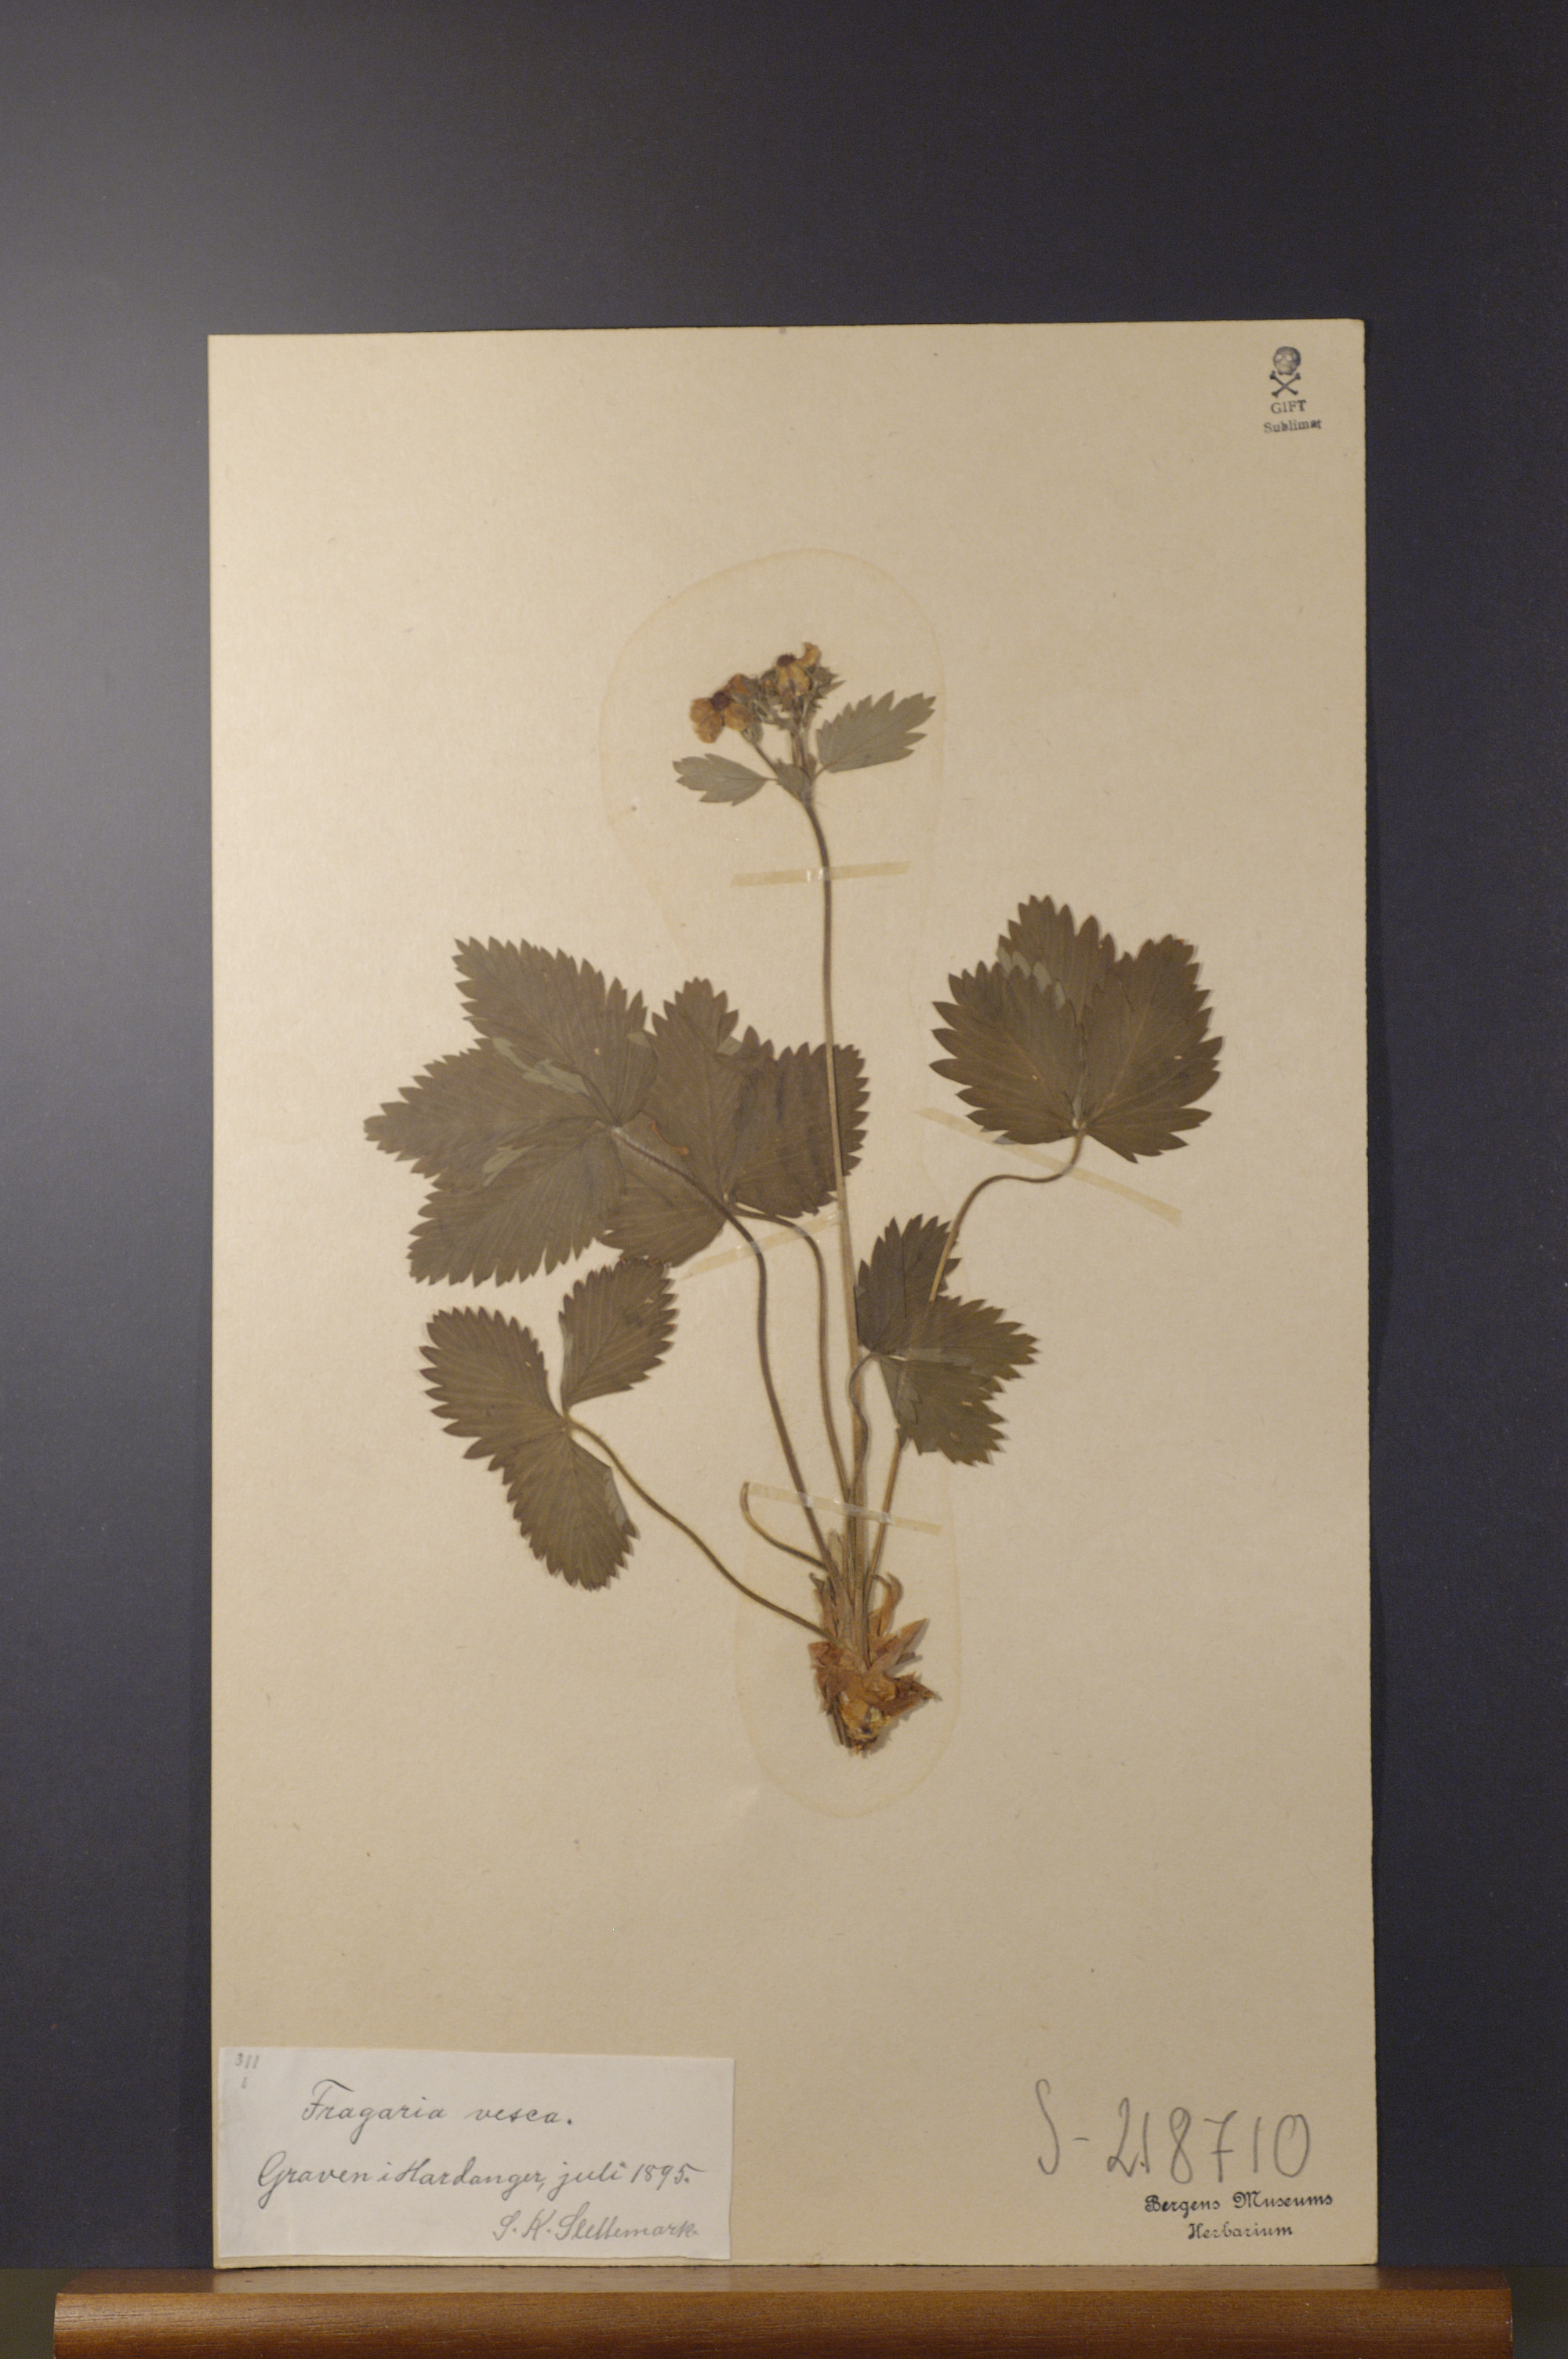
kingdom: Plantae
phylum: Tracheophyta
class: Magnoliopsida
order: Rosales
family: Rosaceae
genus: Fragaria
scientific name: Fragaria vesca
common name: Wild strawberry
